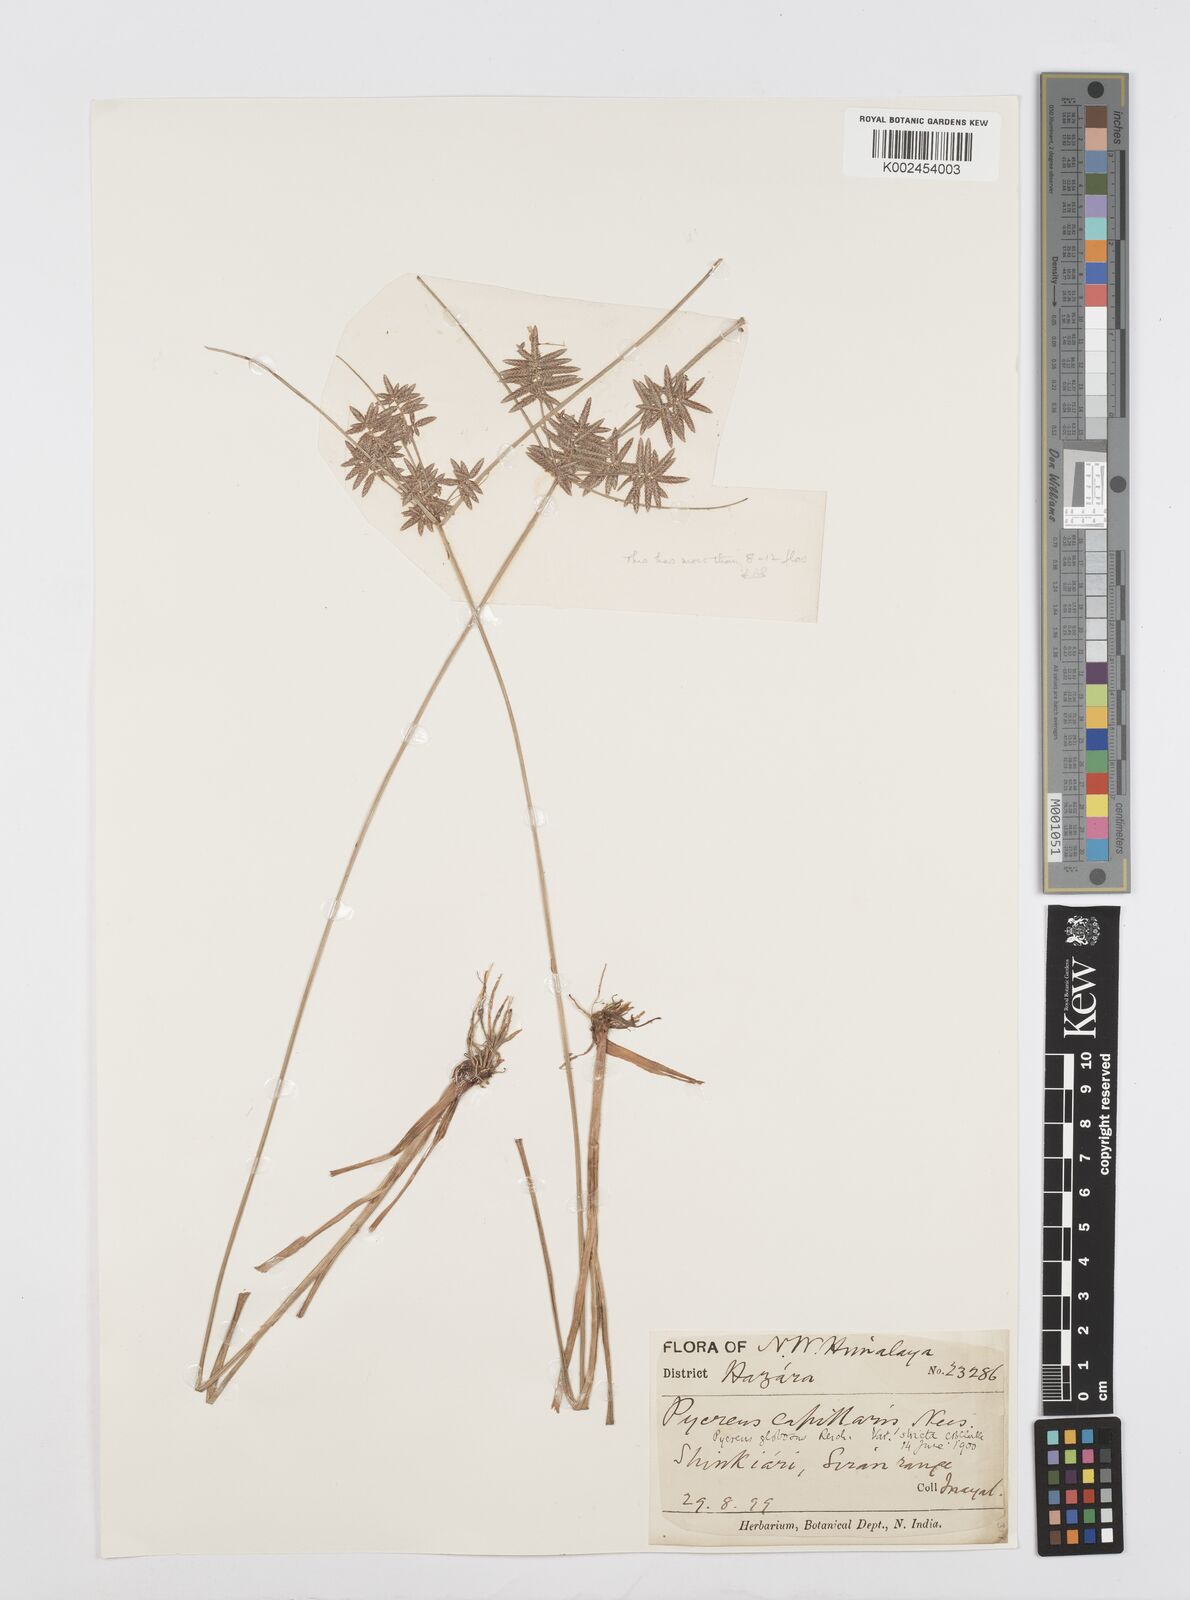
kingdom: Plantae
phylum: Tracheophyta
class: Liliopsida
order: Poales
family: Cyperaceae
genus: Cyperus
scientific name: Cyperus flavidus
